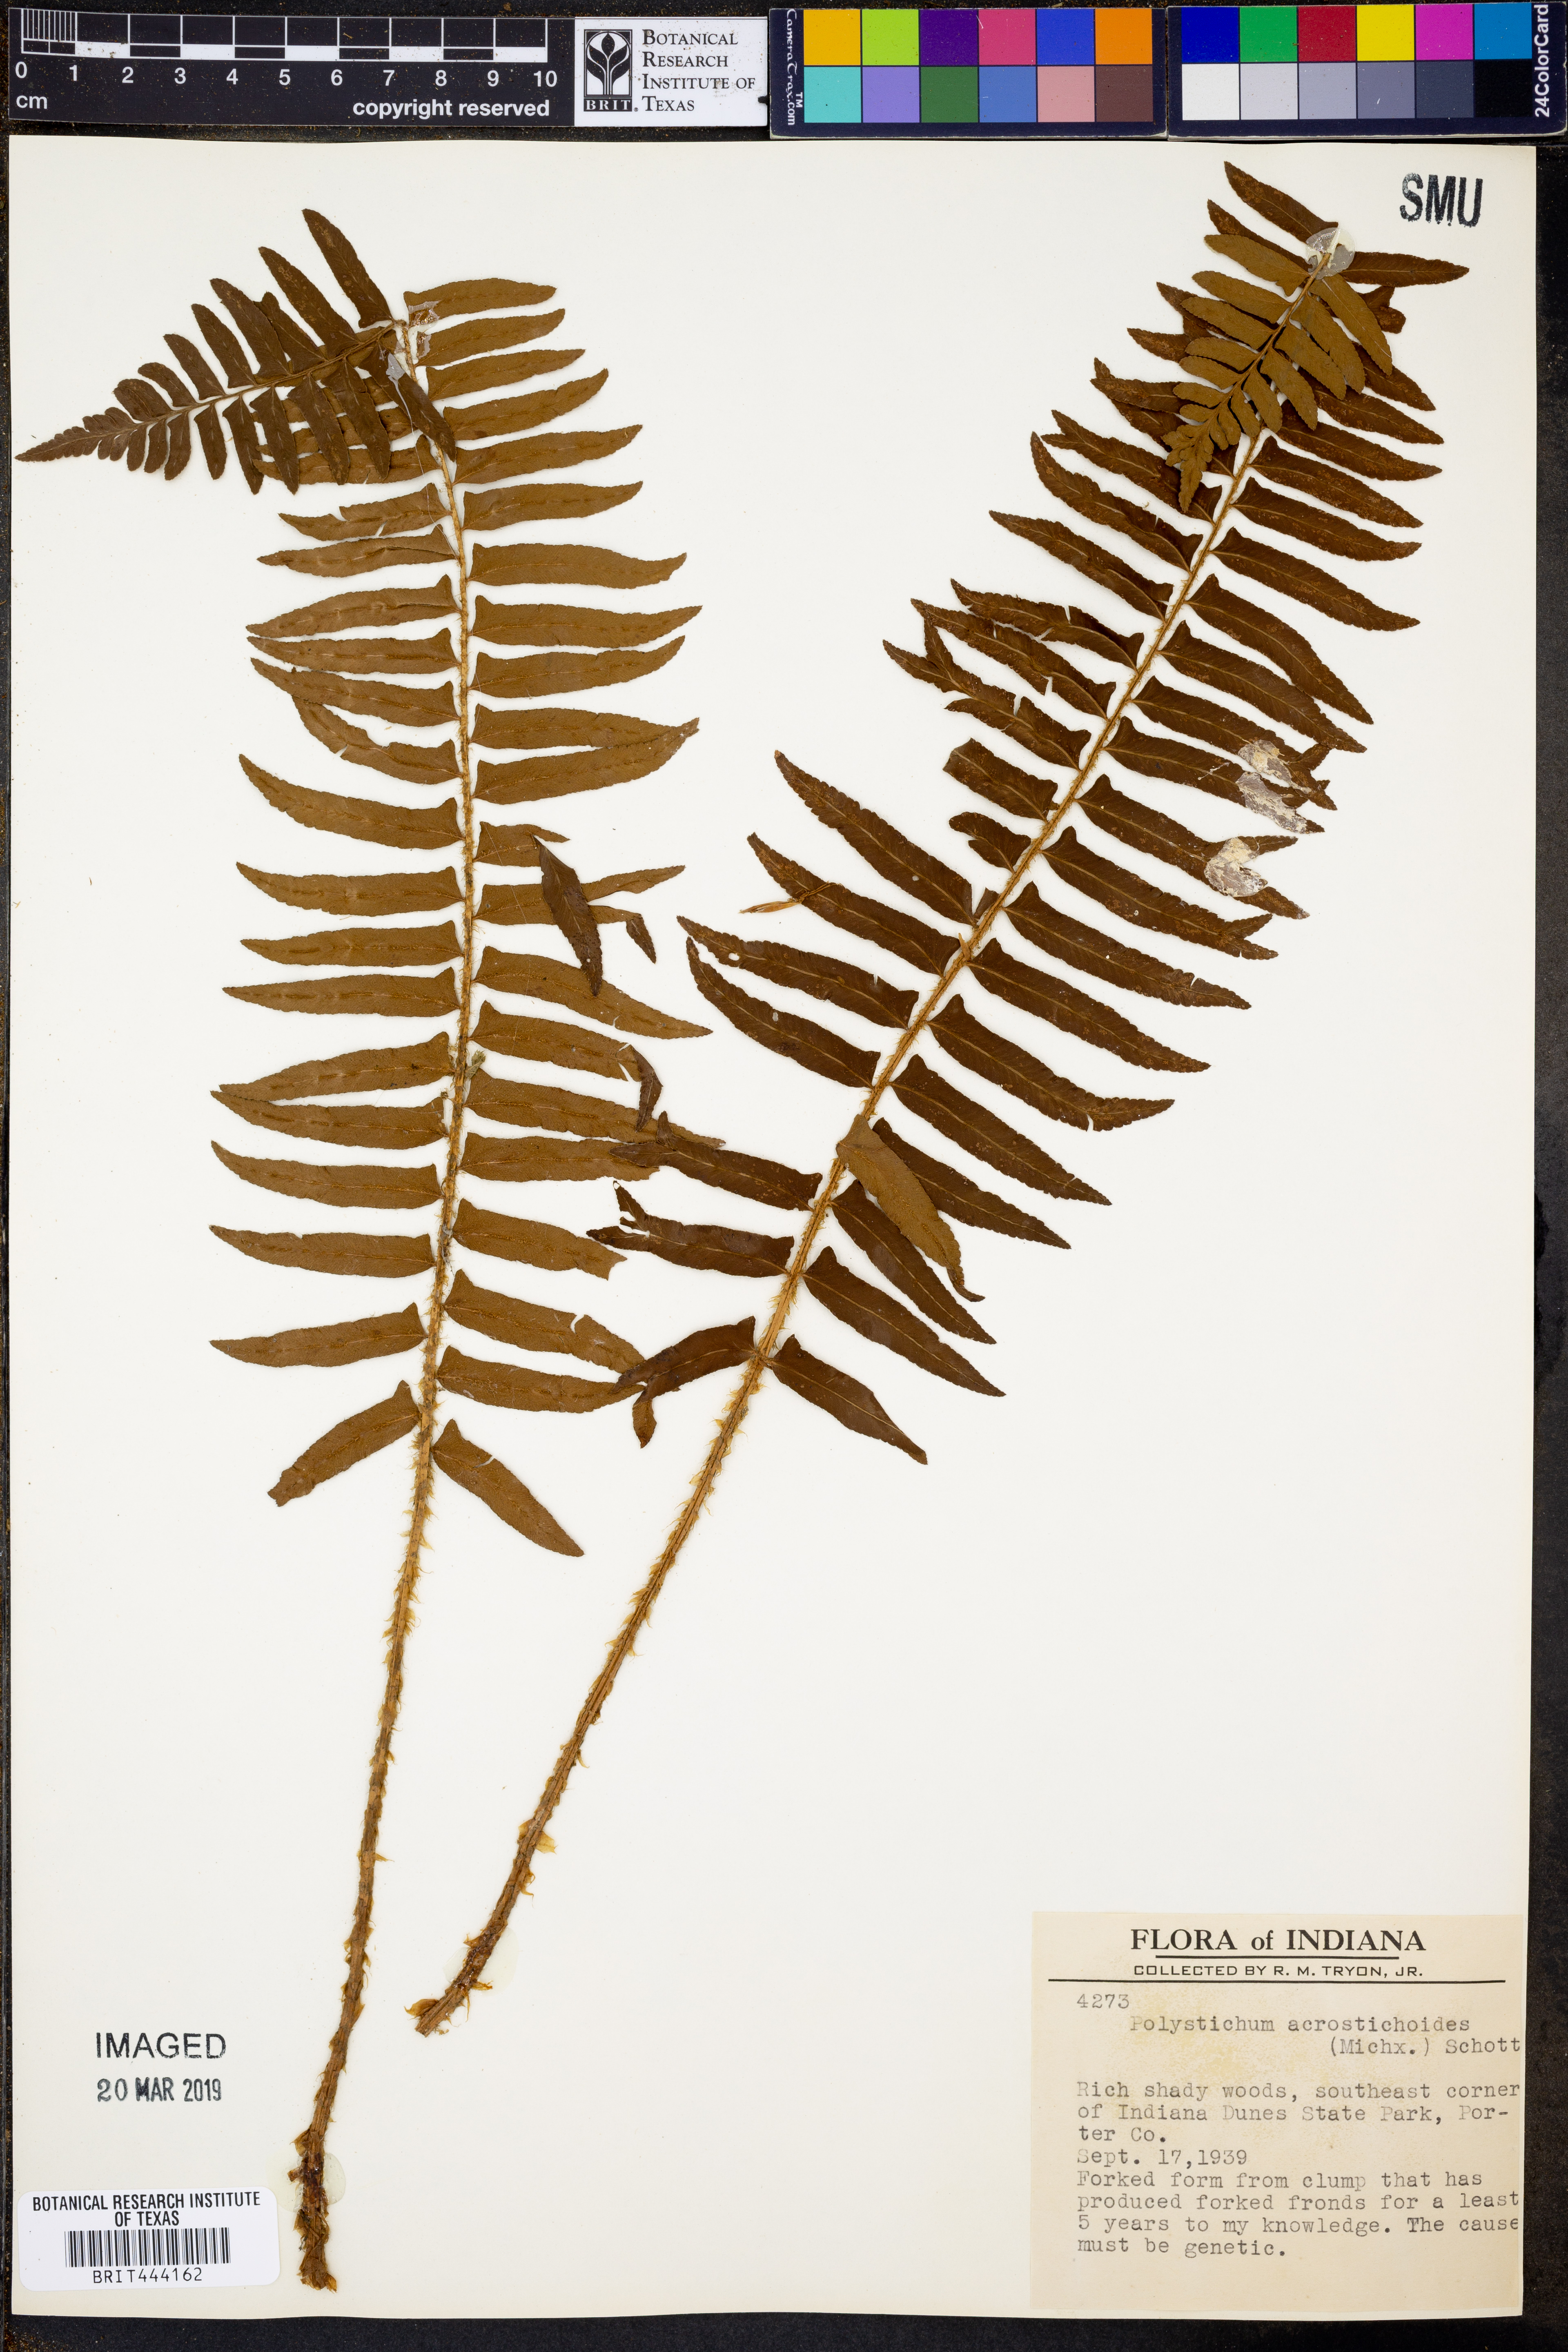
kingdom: Plantae
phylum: Tracheophyta
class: Polypodiopsida
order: Polypodiales
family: Dryopteridaceae
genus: Polystichum
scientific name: Polystichum acrostichoides
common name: Christmas fern
